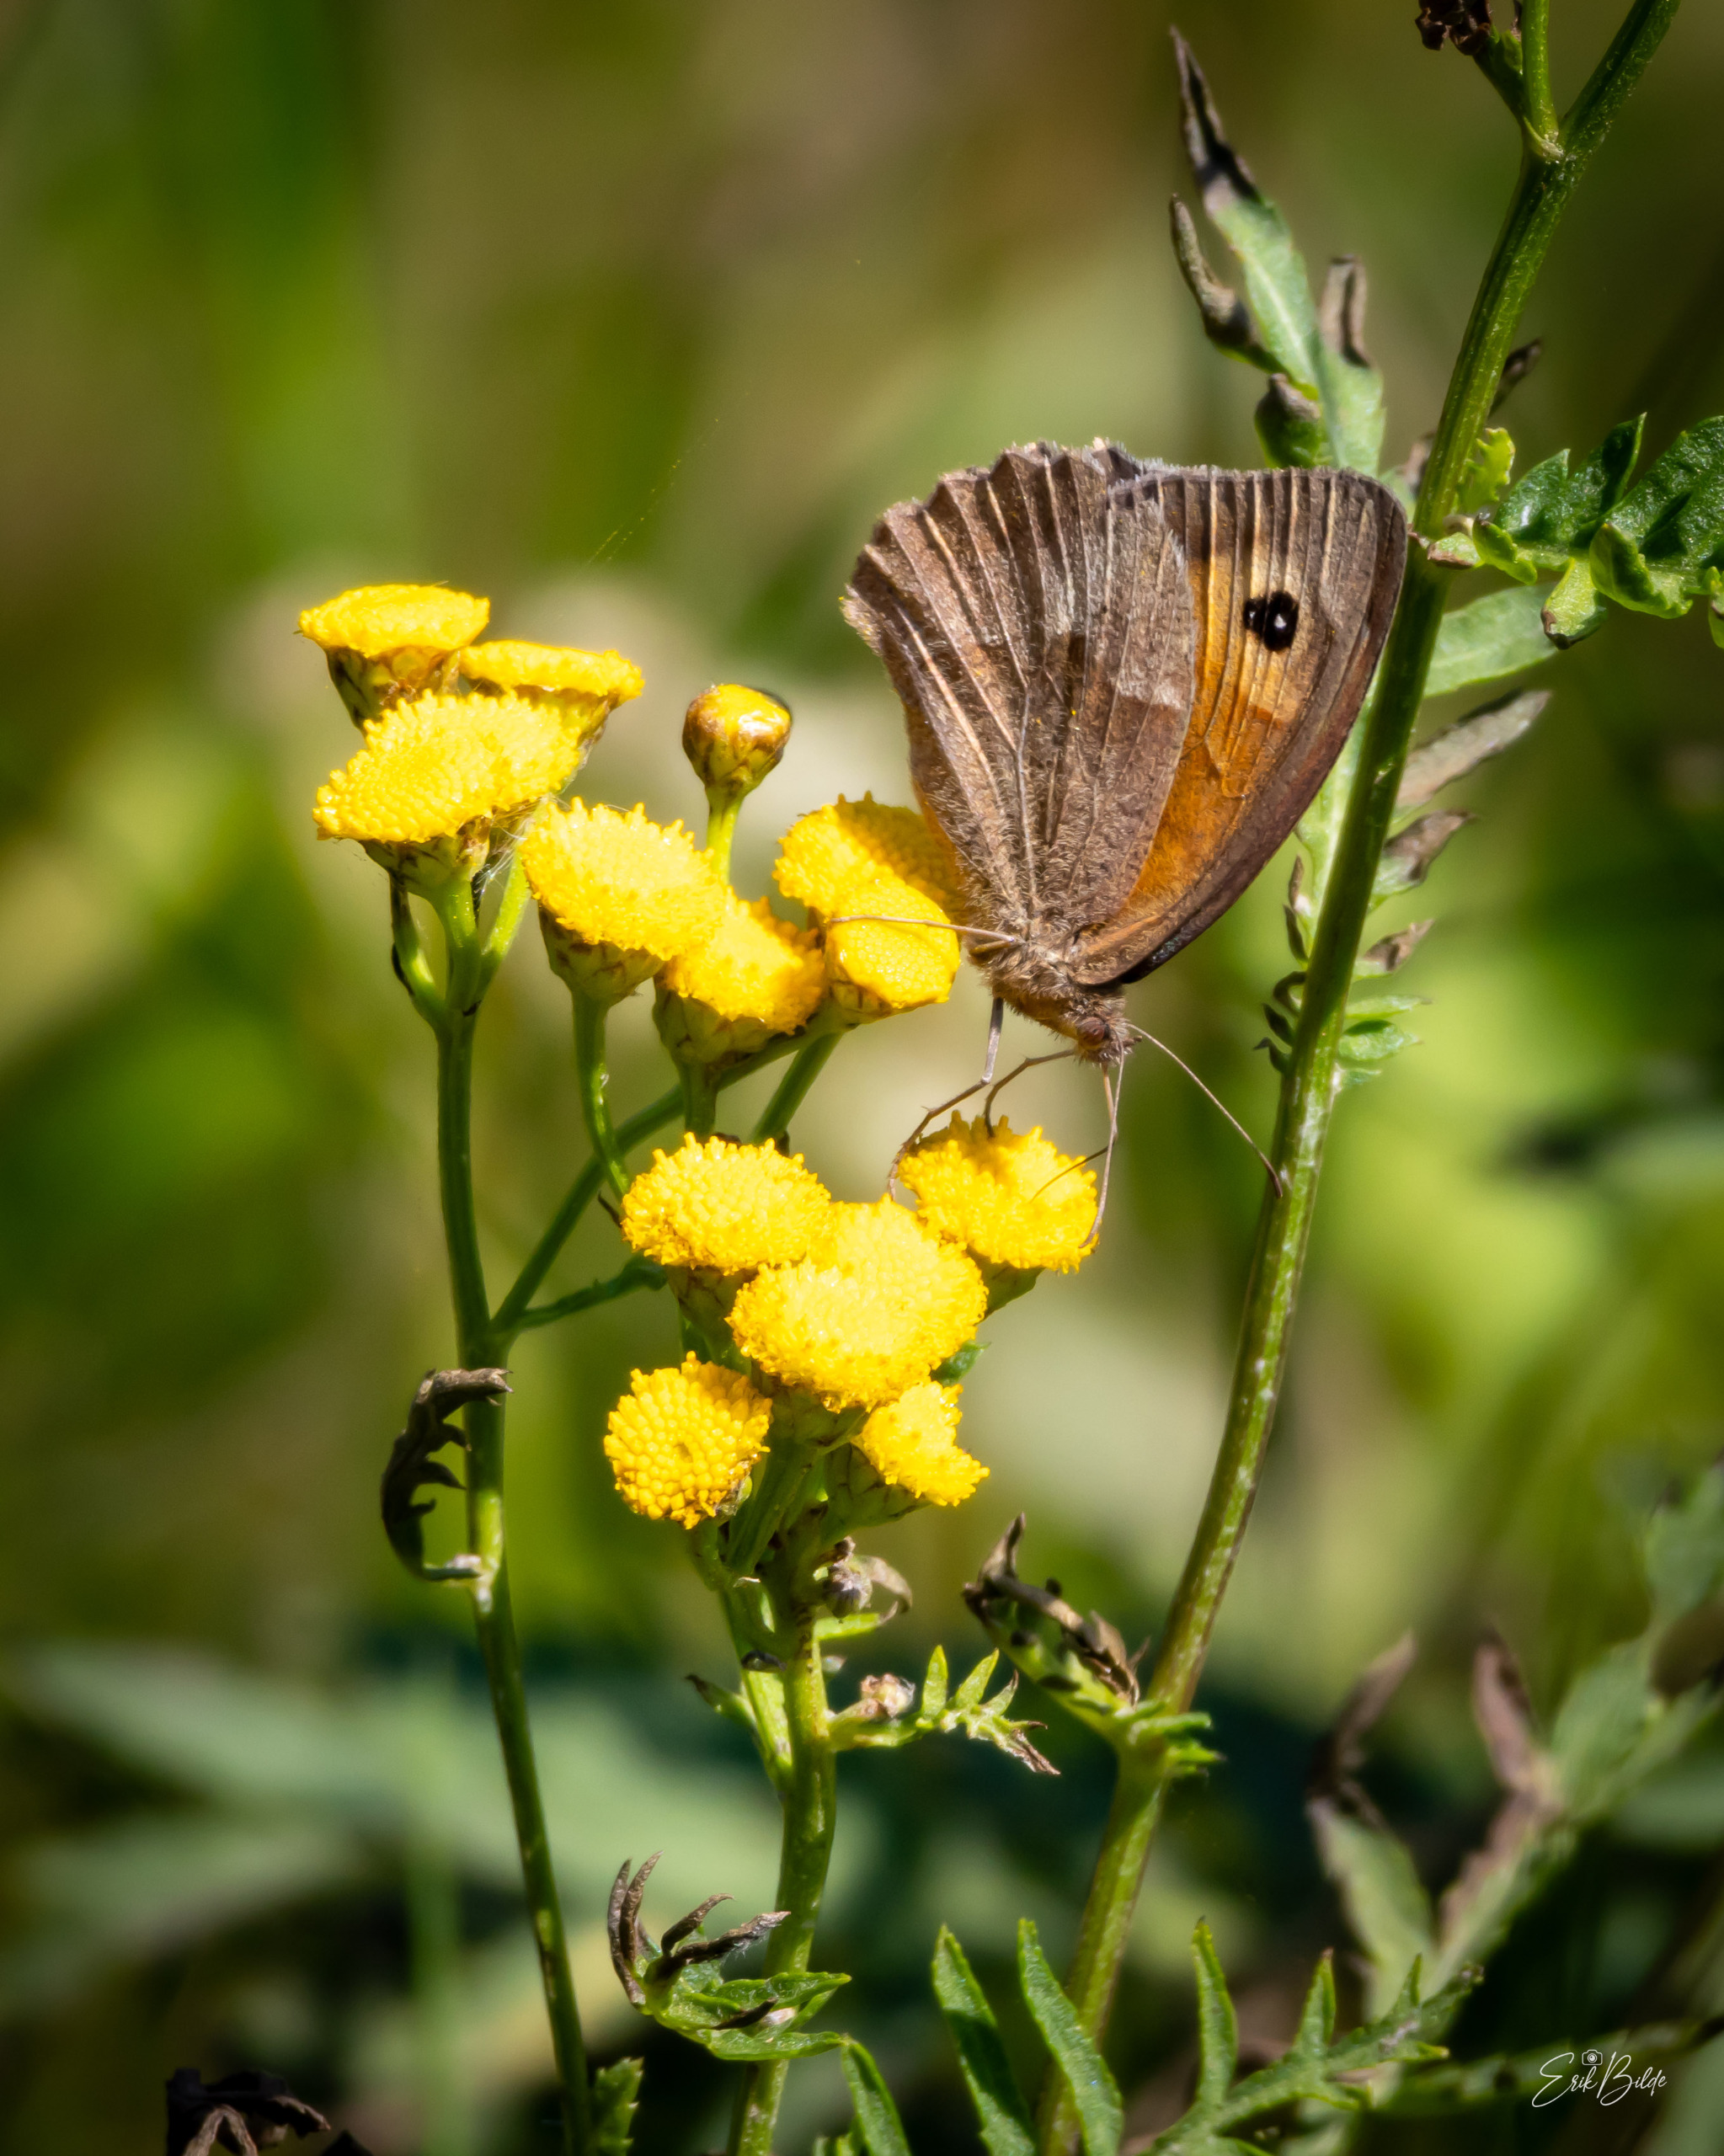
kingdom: Animalia
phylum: Arthropoda
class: Insecta
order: Lepidoptera
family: Nymphalidae
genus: Maniola
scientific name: Maniola jurtina
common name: Græsrandøje
